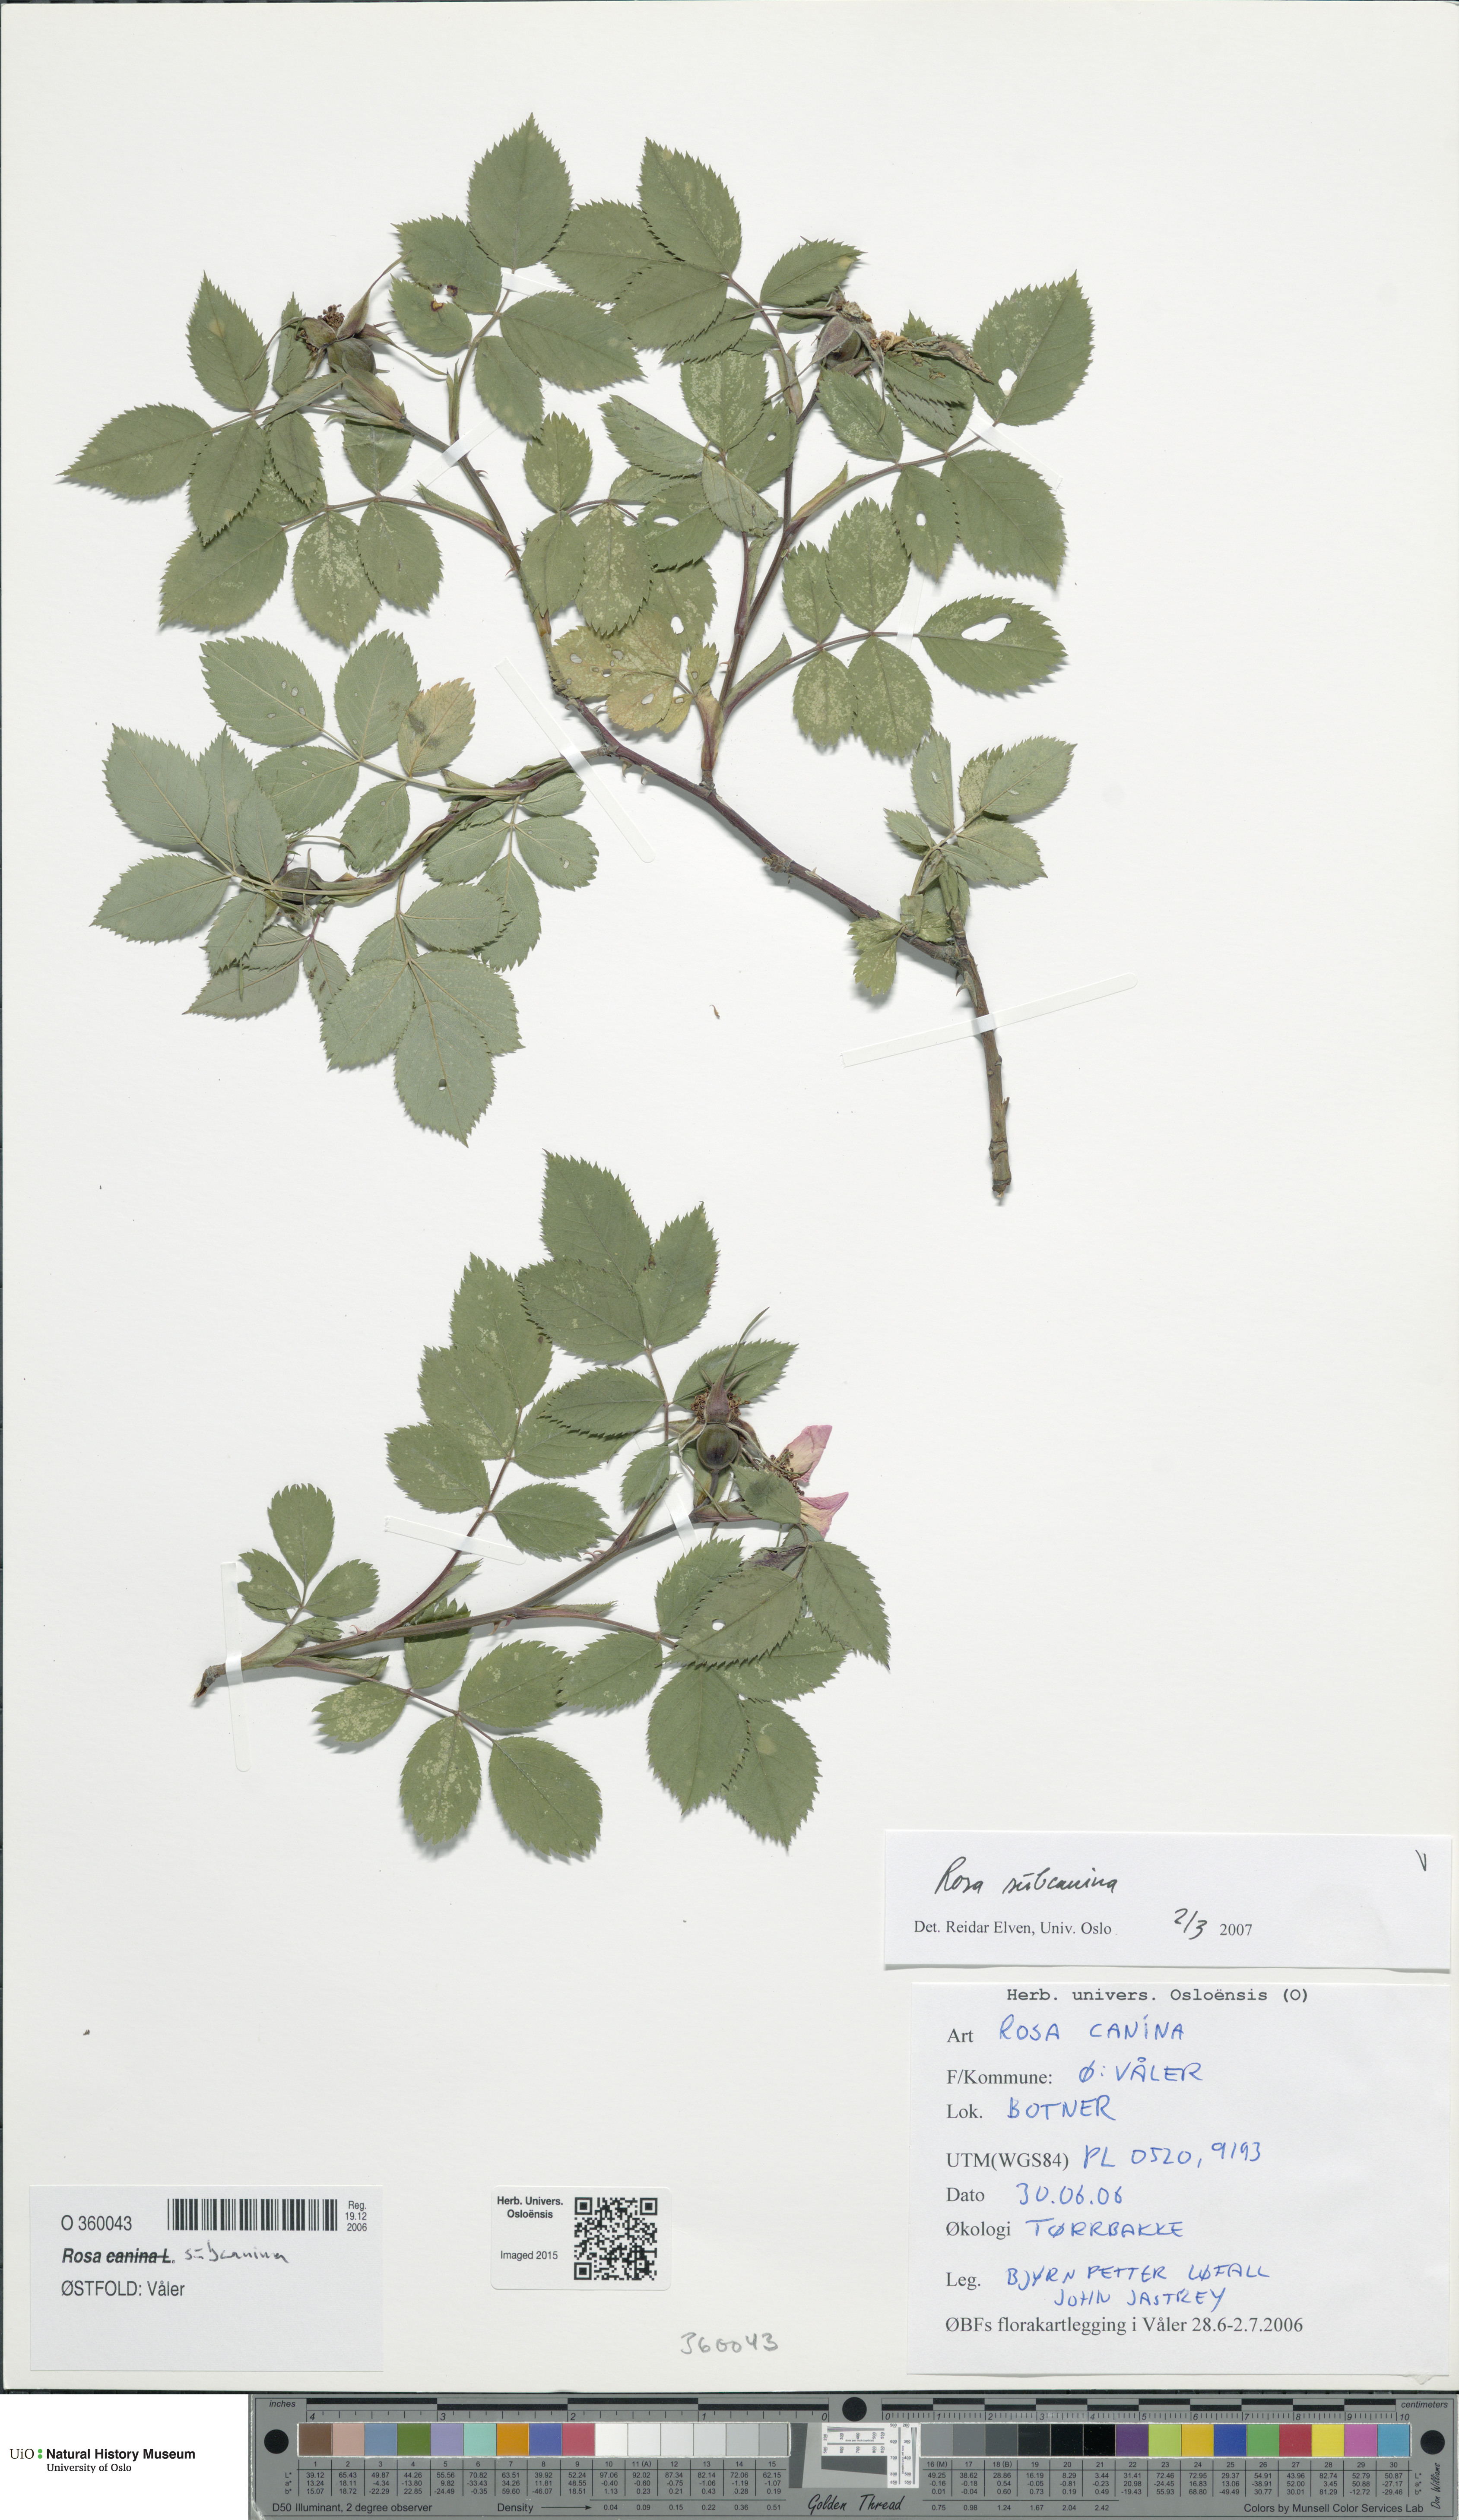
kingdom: Plantae
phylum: Tracheophyta
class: Magnoliopsida
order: Rosales
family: Rosaceae
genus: Rosa
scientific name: Rosa subcanina
